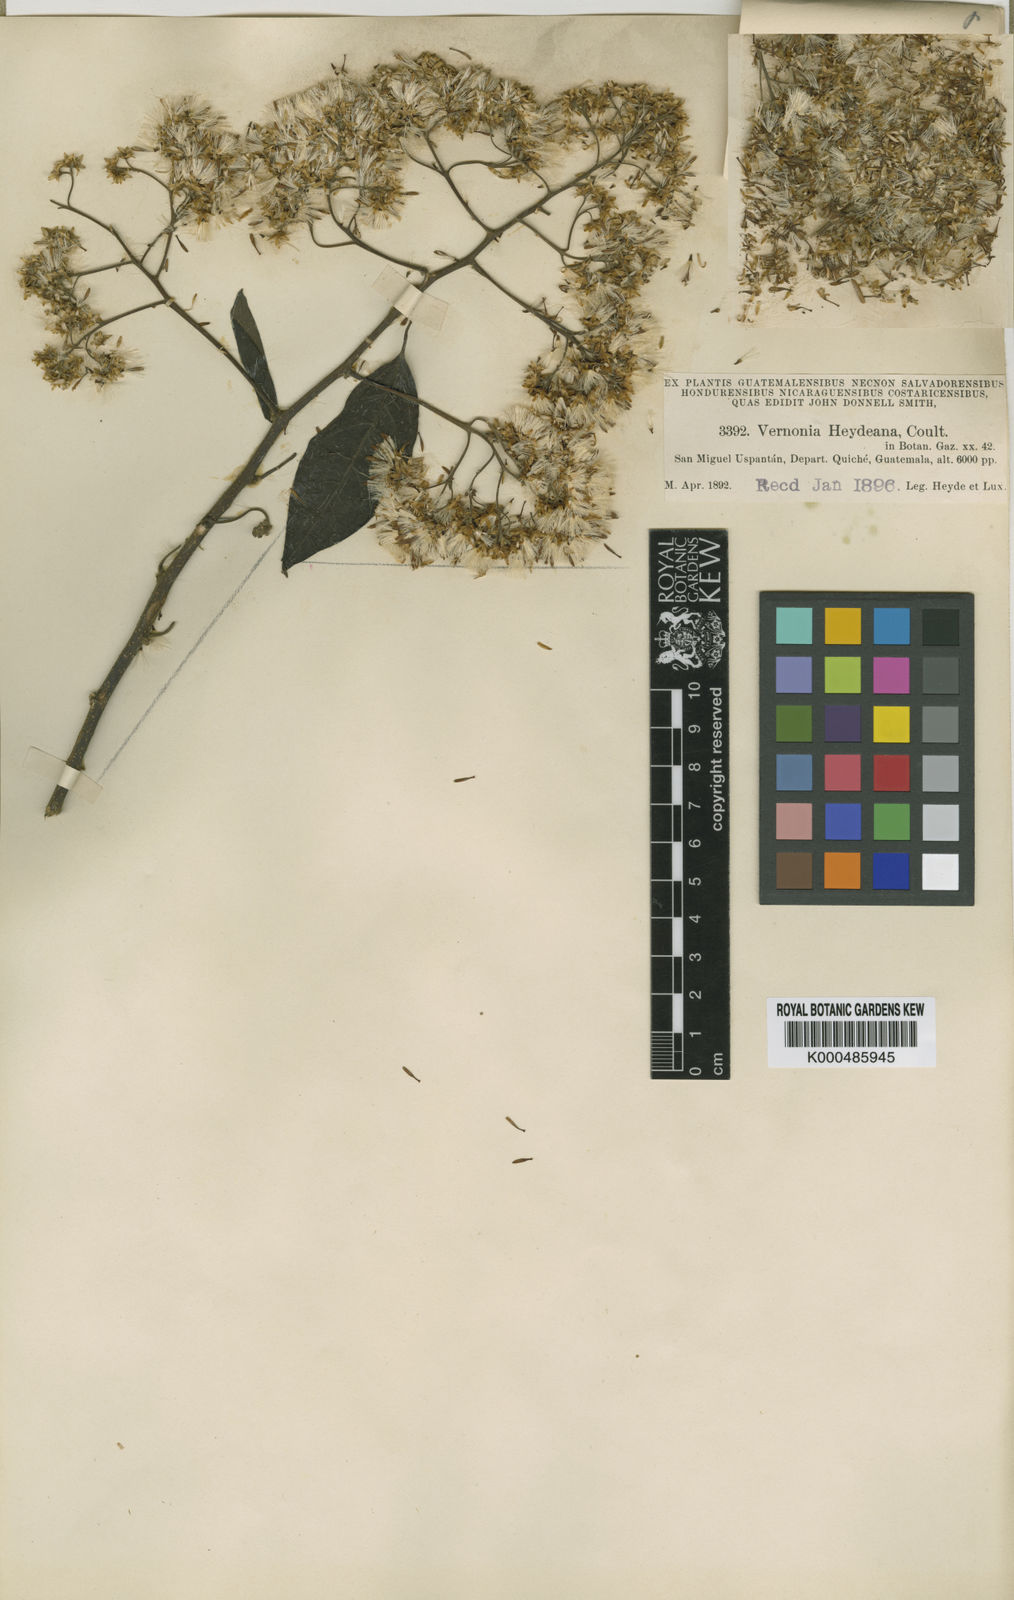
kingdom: Plantae
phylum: Tracheophyta
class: Magnoliopsida
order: Asterales
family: Asteraceae
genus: Eremosis
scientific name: Eremosis heydeana
